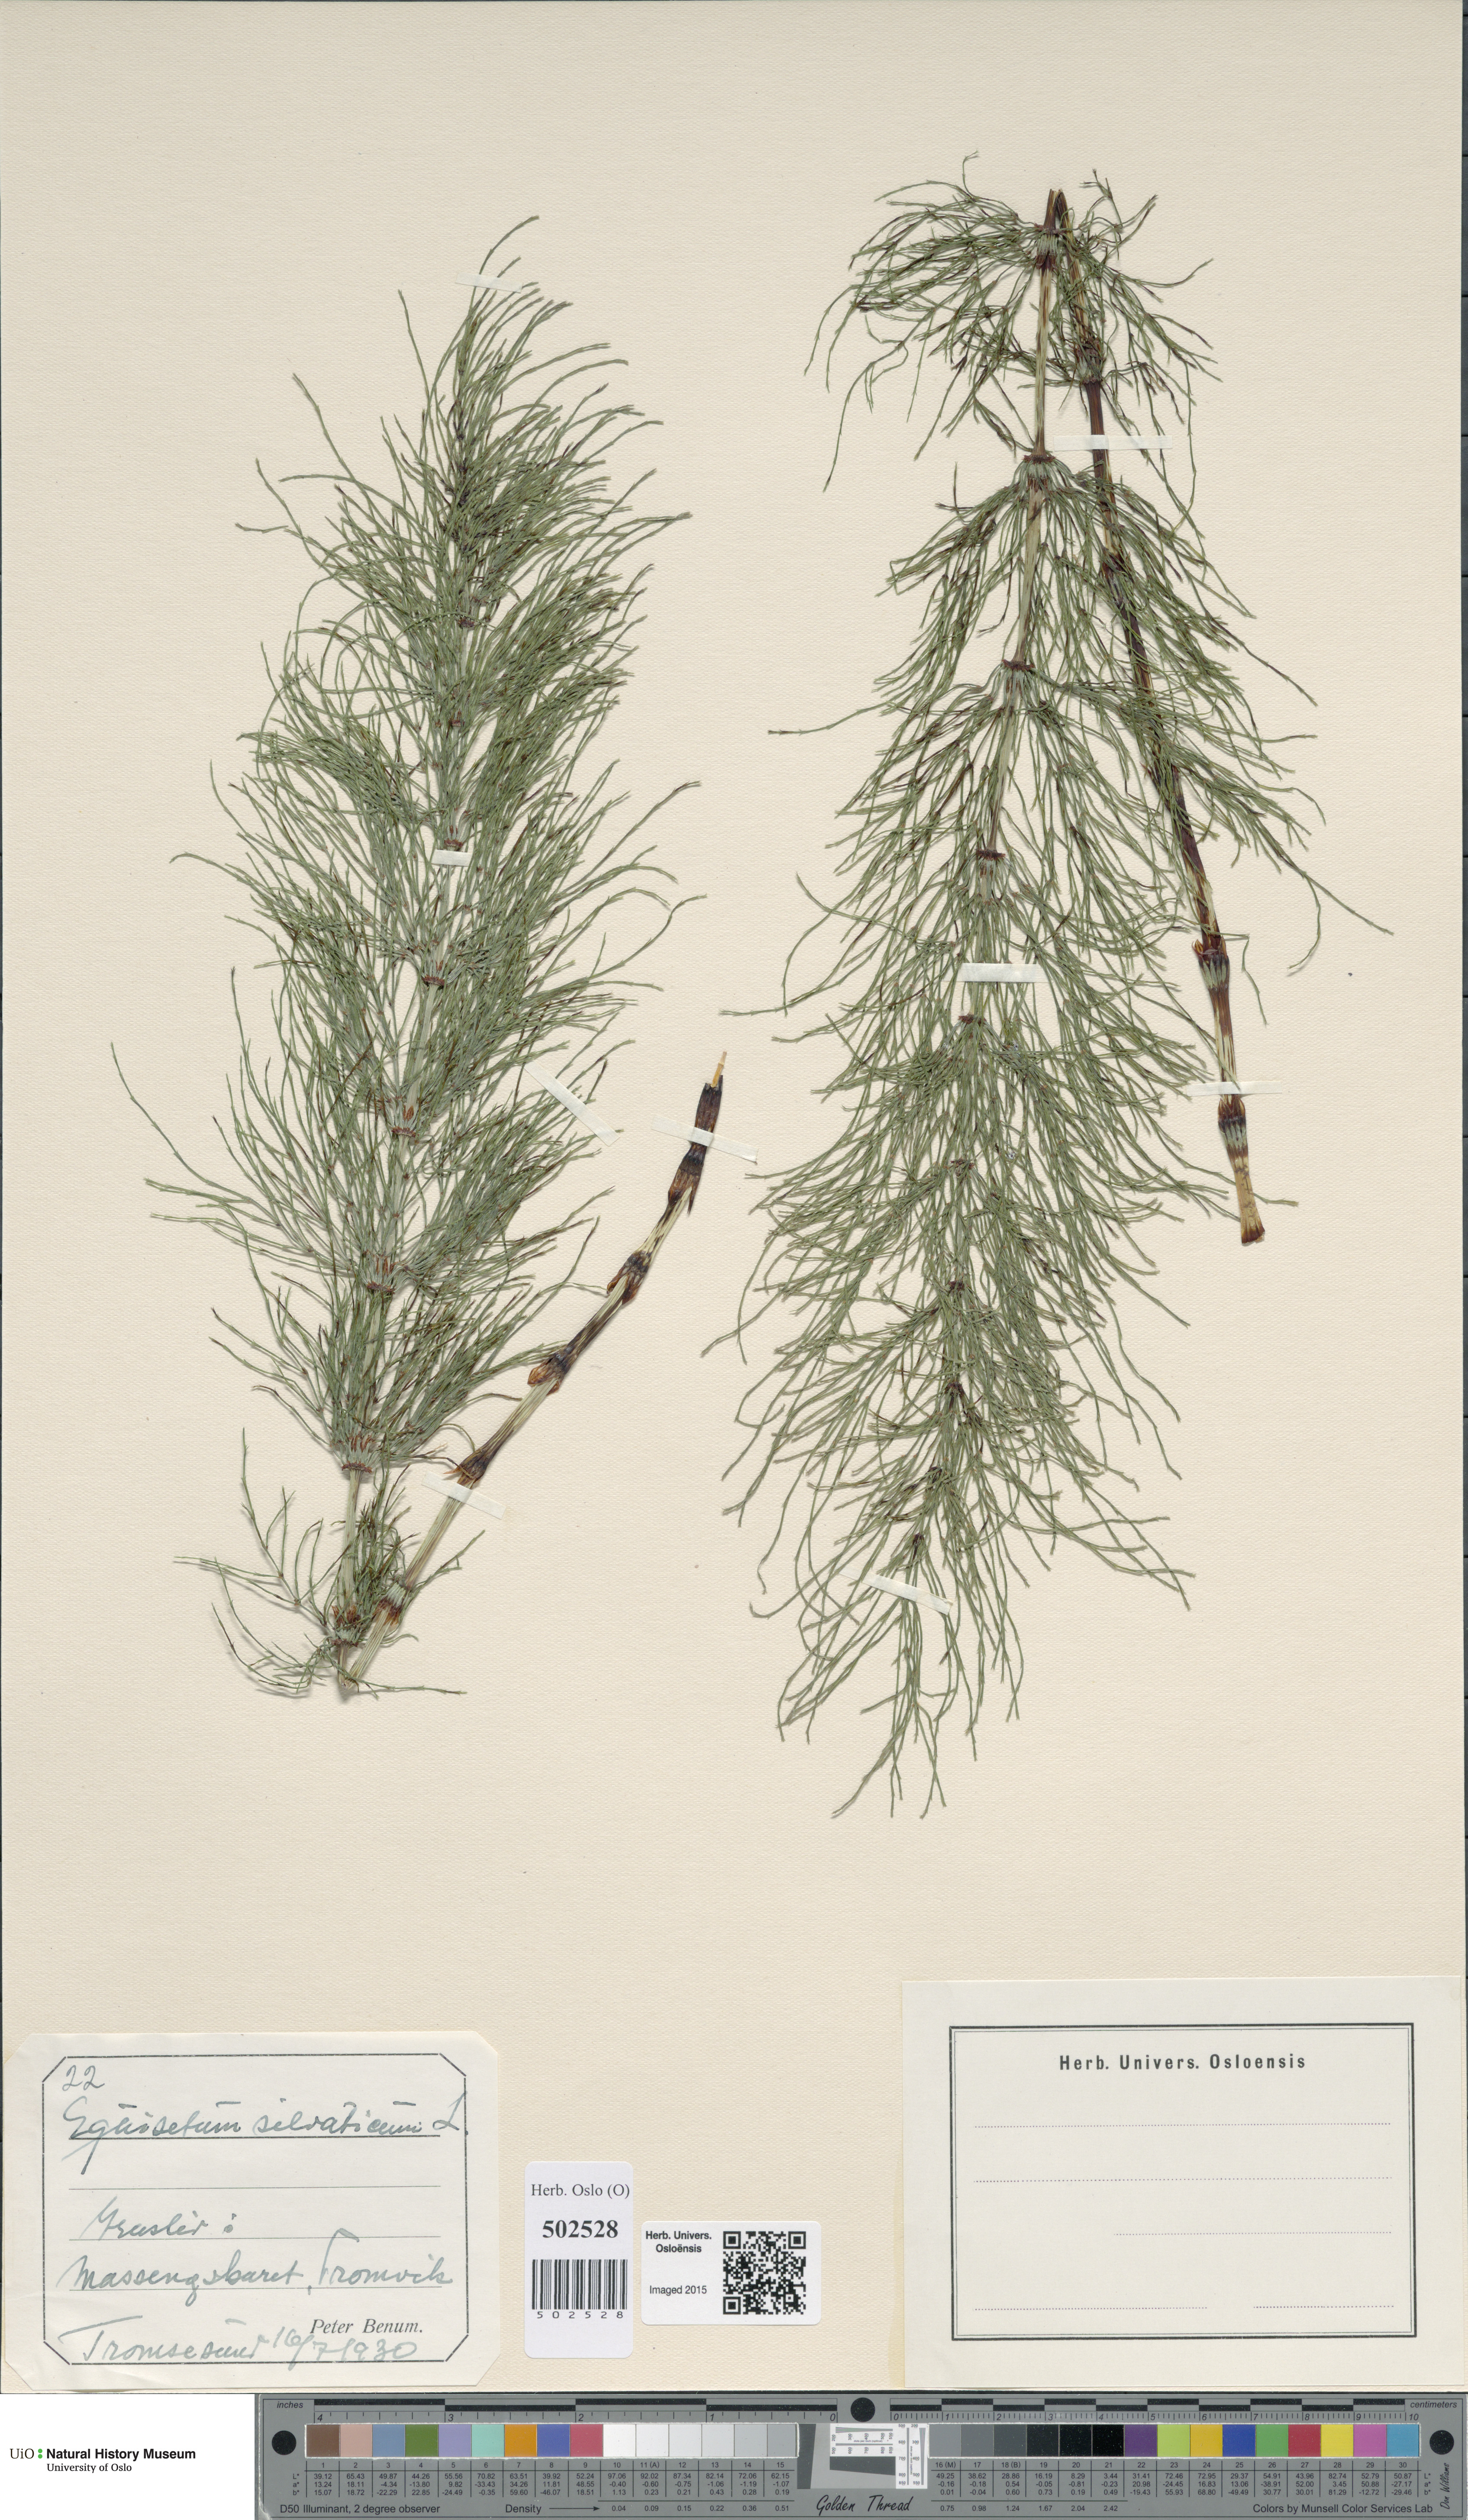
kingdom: Plantae
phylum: Tracheophyta
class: Polypodiopsida
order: Equisetales
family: Equisetaceae
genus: Equisetum
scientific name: Equisetum sylvaticum
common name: Wood horsetail
